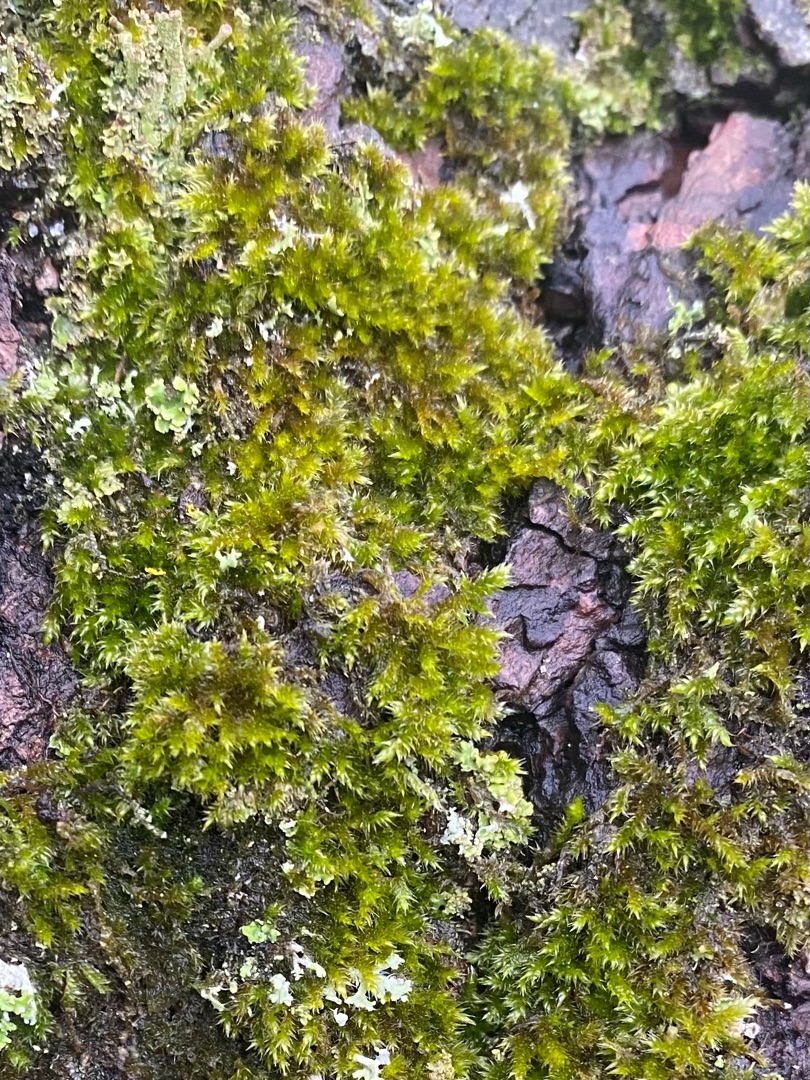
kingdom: Plantae
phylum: Bryophyta
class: Bryopsida
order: Hypnales
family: Hypnaceae
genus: Hypnum
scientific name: Hypnum
